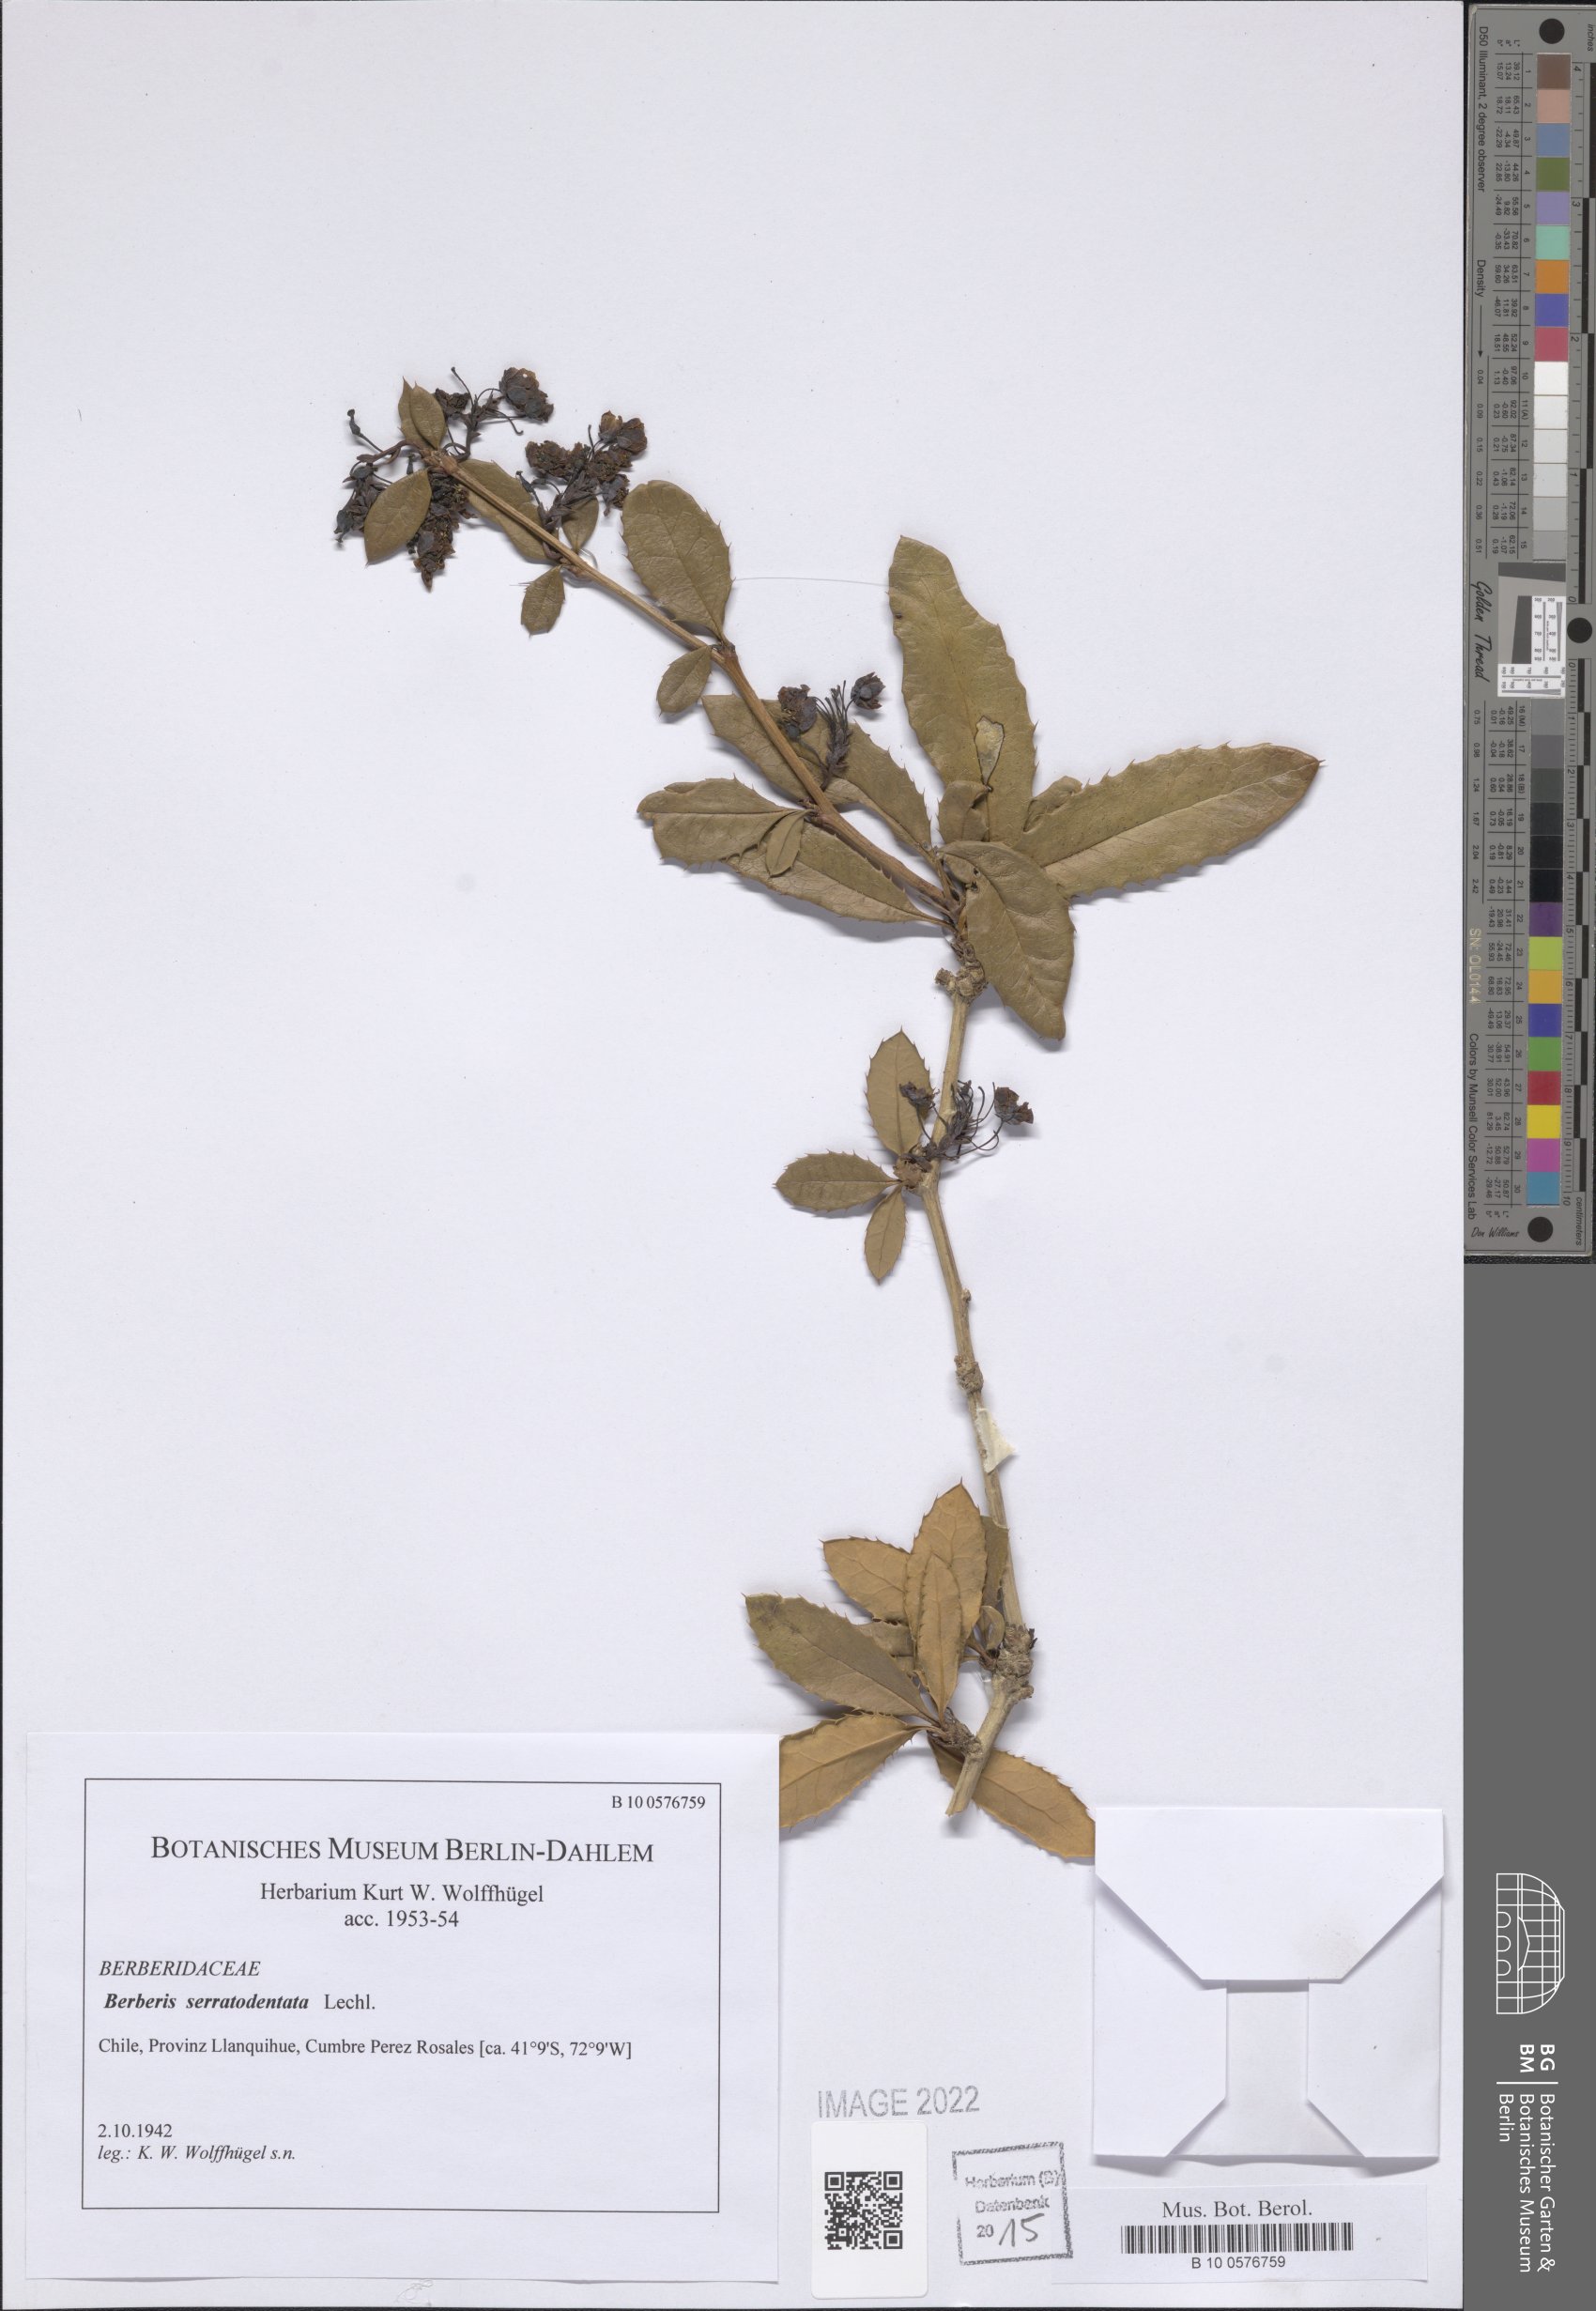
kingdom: Plantae
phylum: Tracheophyta
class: Magnoliopsida
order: Ranunculales
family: Berberidaceae
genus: Berberis
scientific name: Berberis serratodentata
